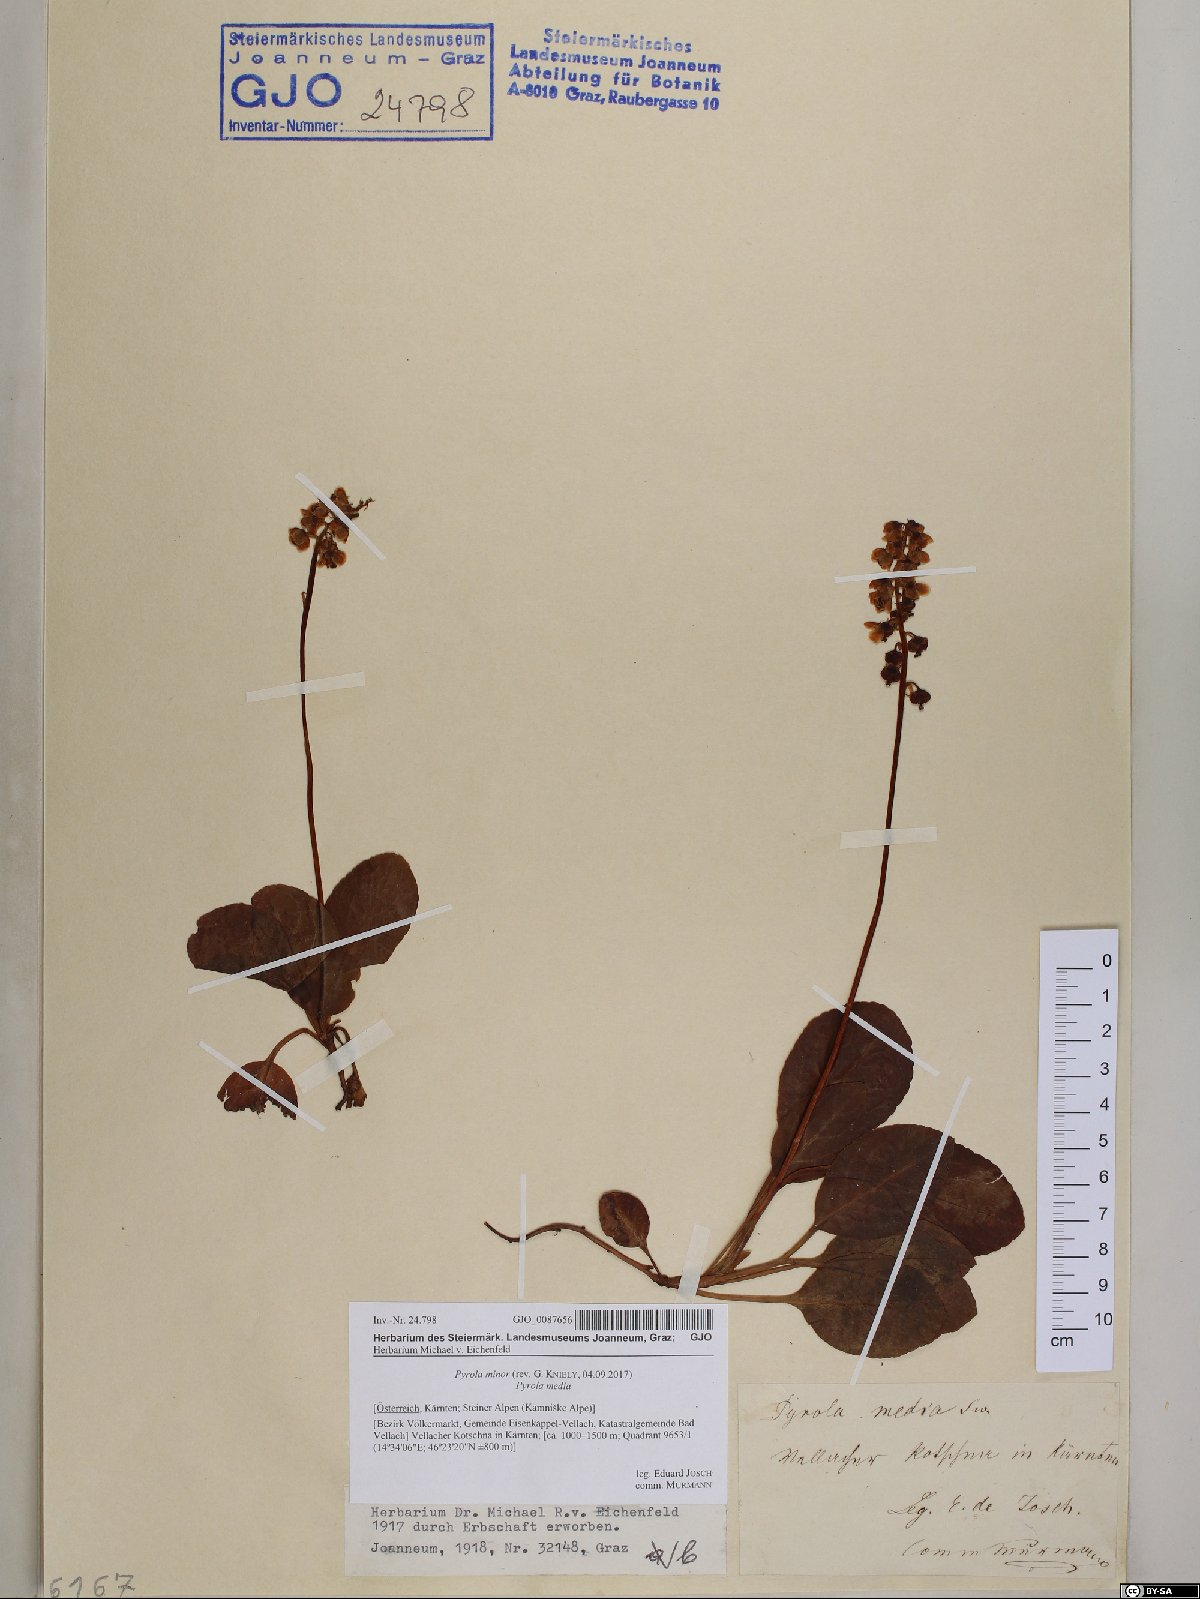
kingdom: Plantae
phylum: Tracheophyta
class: Magnoliopsida
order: Ericales
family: Ericaceae
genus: Pyrola
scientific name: Pyrola minor
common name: Common wintergreen
